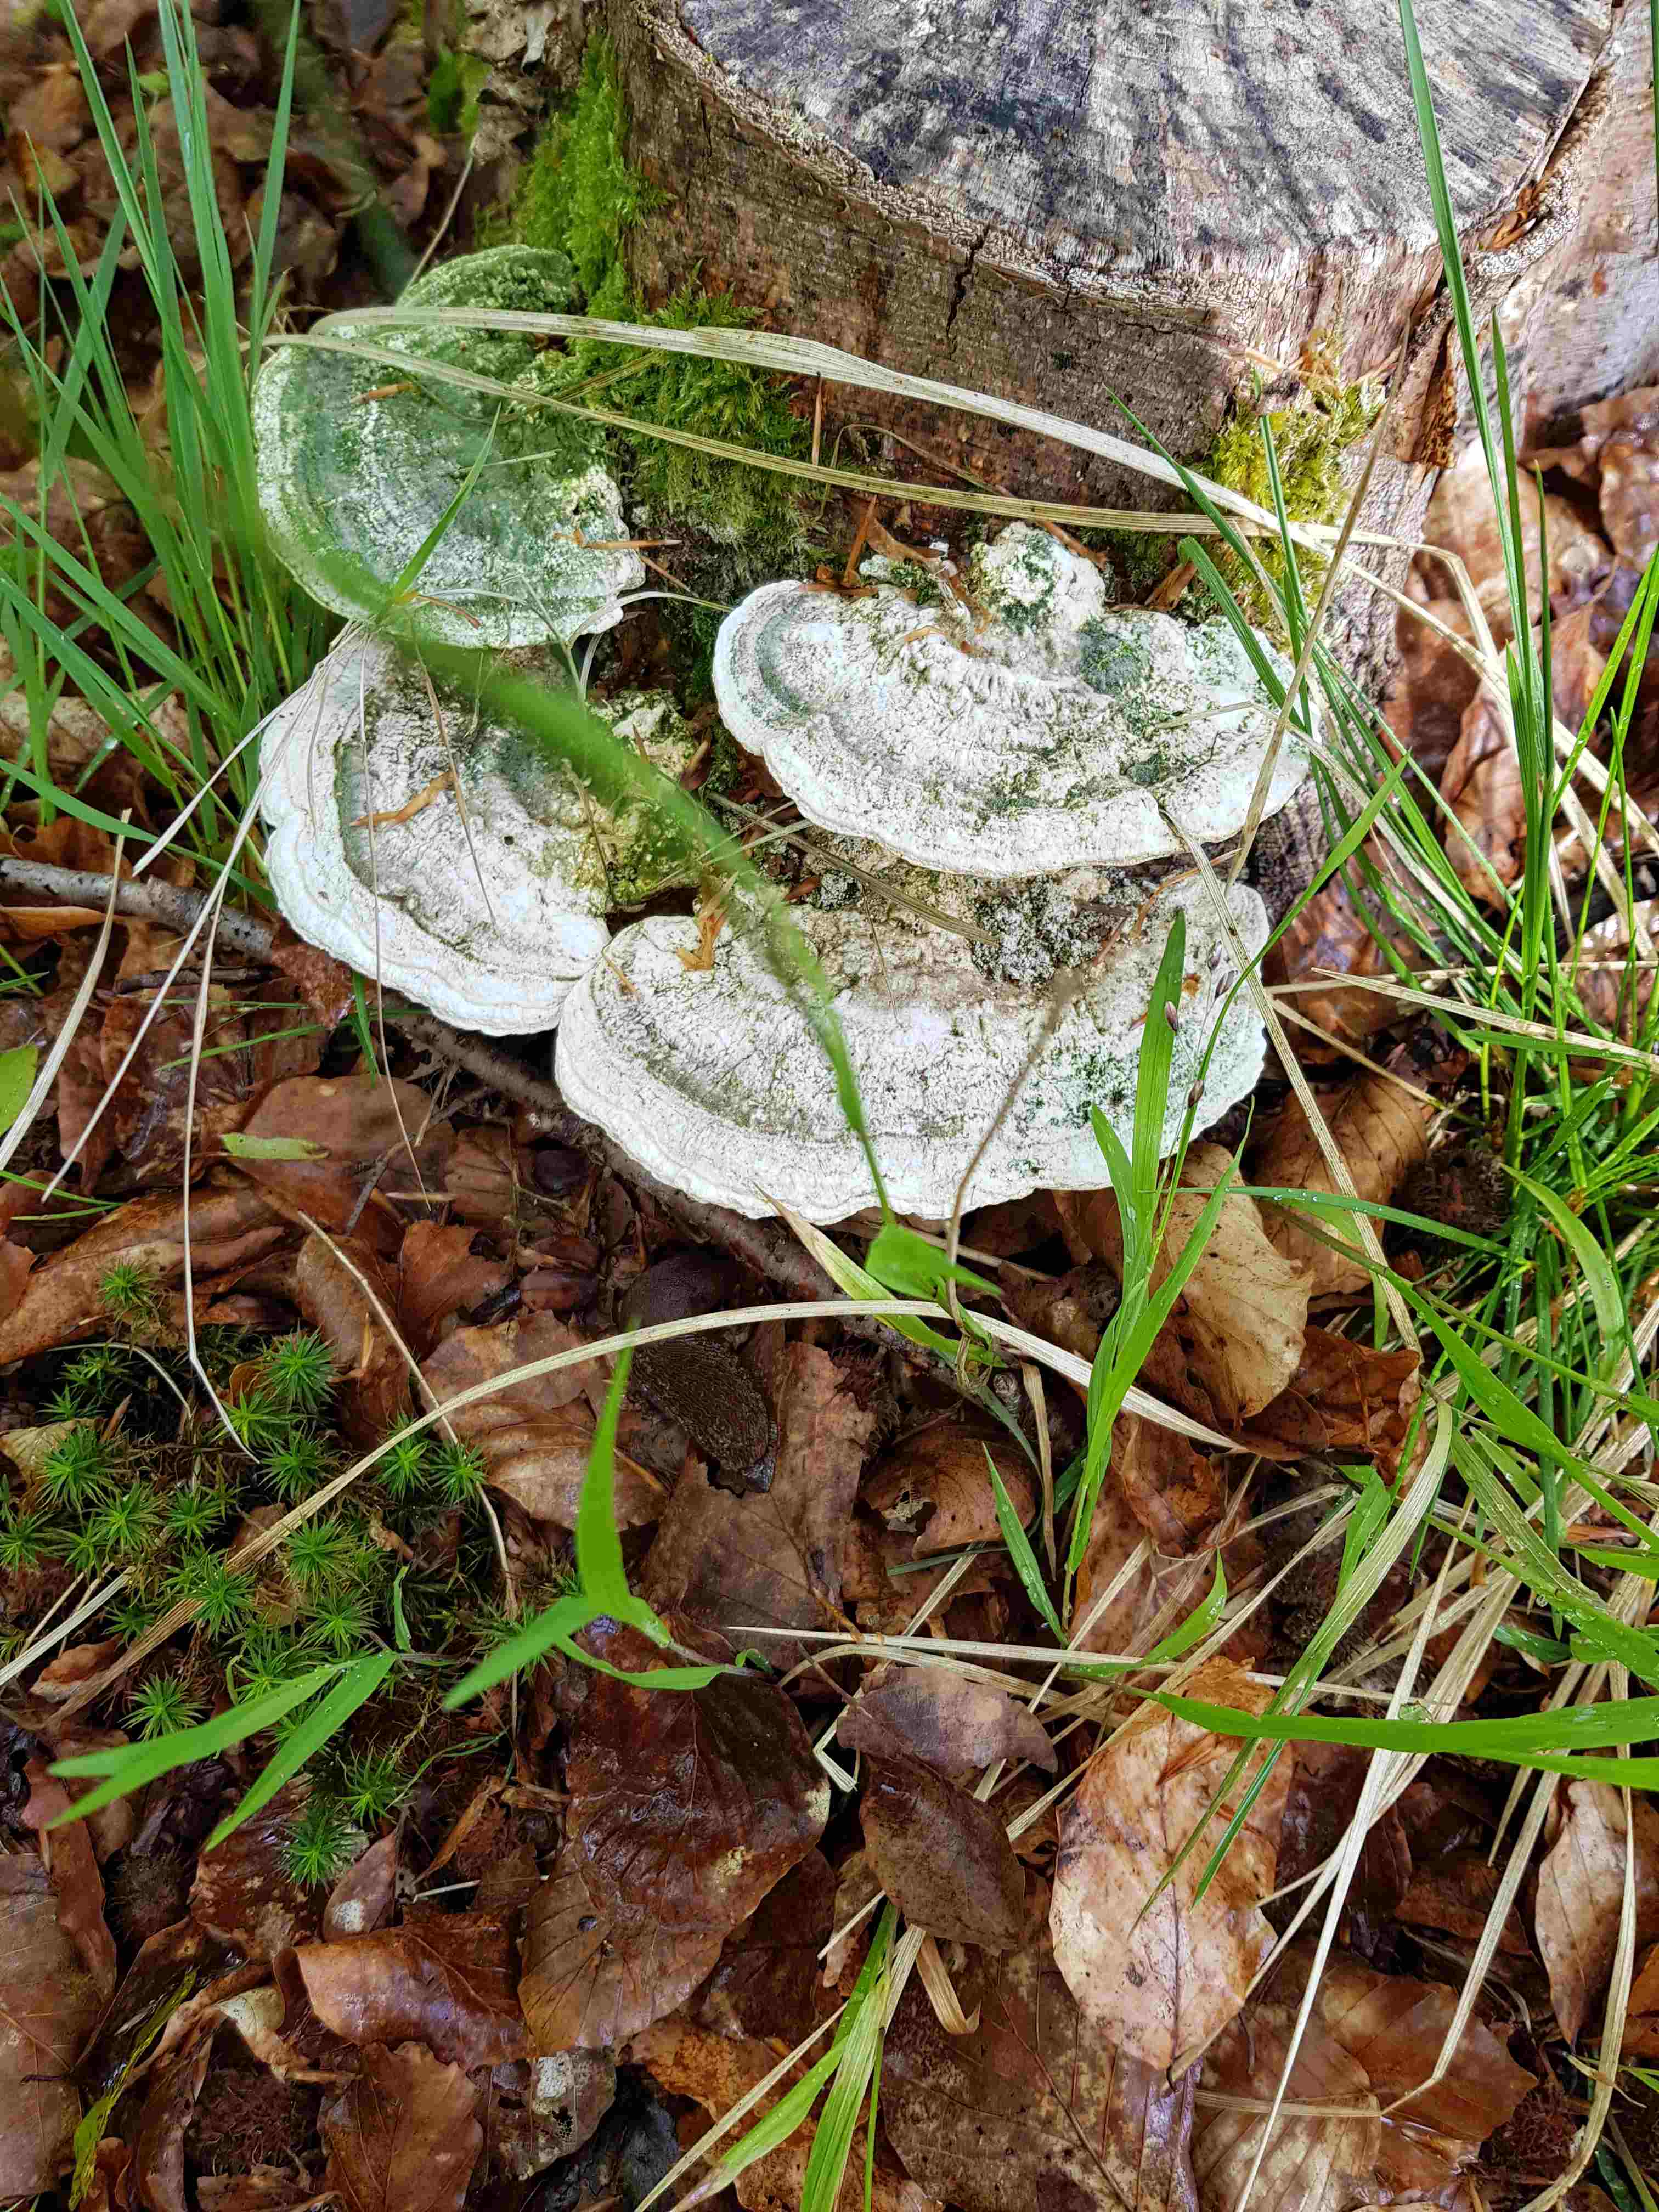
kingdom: Fungi
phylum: Basidiomycota
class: Agaricomycetes
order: Polyporales
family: Polyporaceae
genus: Trametes
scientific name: Trametes gibbosa
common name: puklet læderporesvamp
